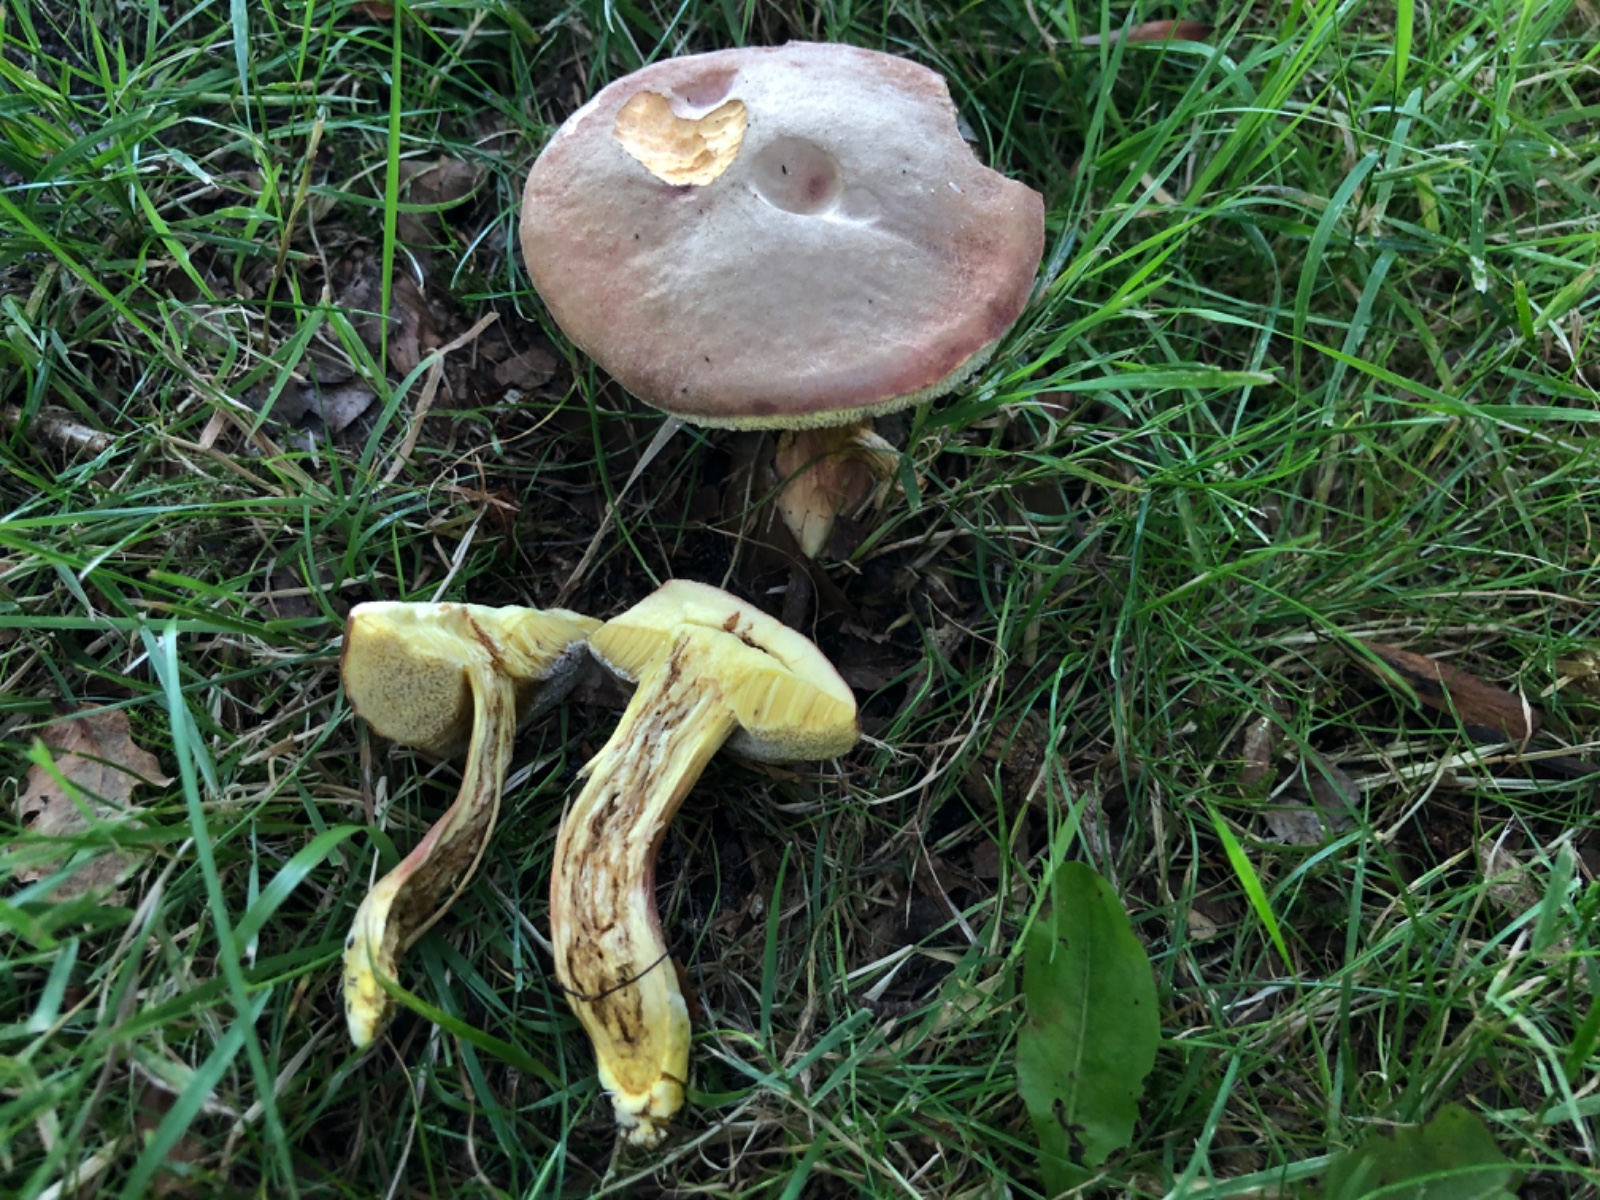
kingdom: Fungi
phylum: Basidiomycota
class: Agaricomycetes
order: Boletales
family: Boletaceae
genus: Hortiboletus
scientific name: Hortiboletus engelii
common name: fersken-rørhat
